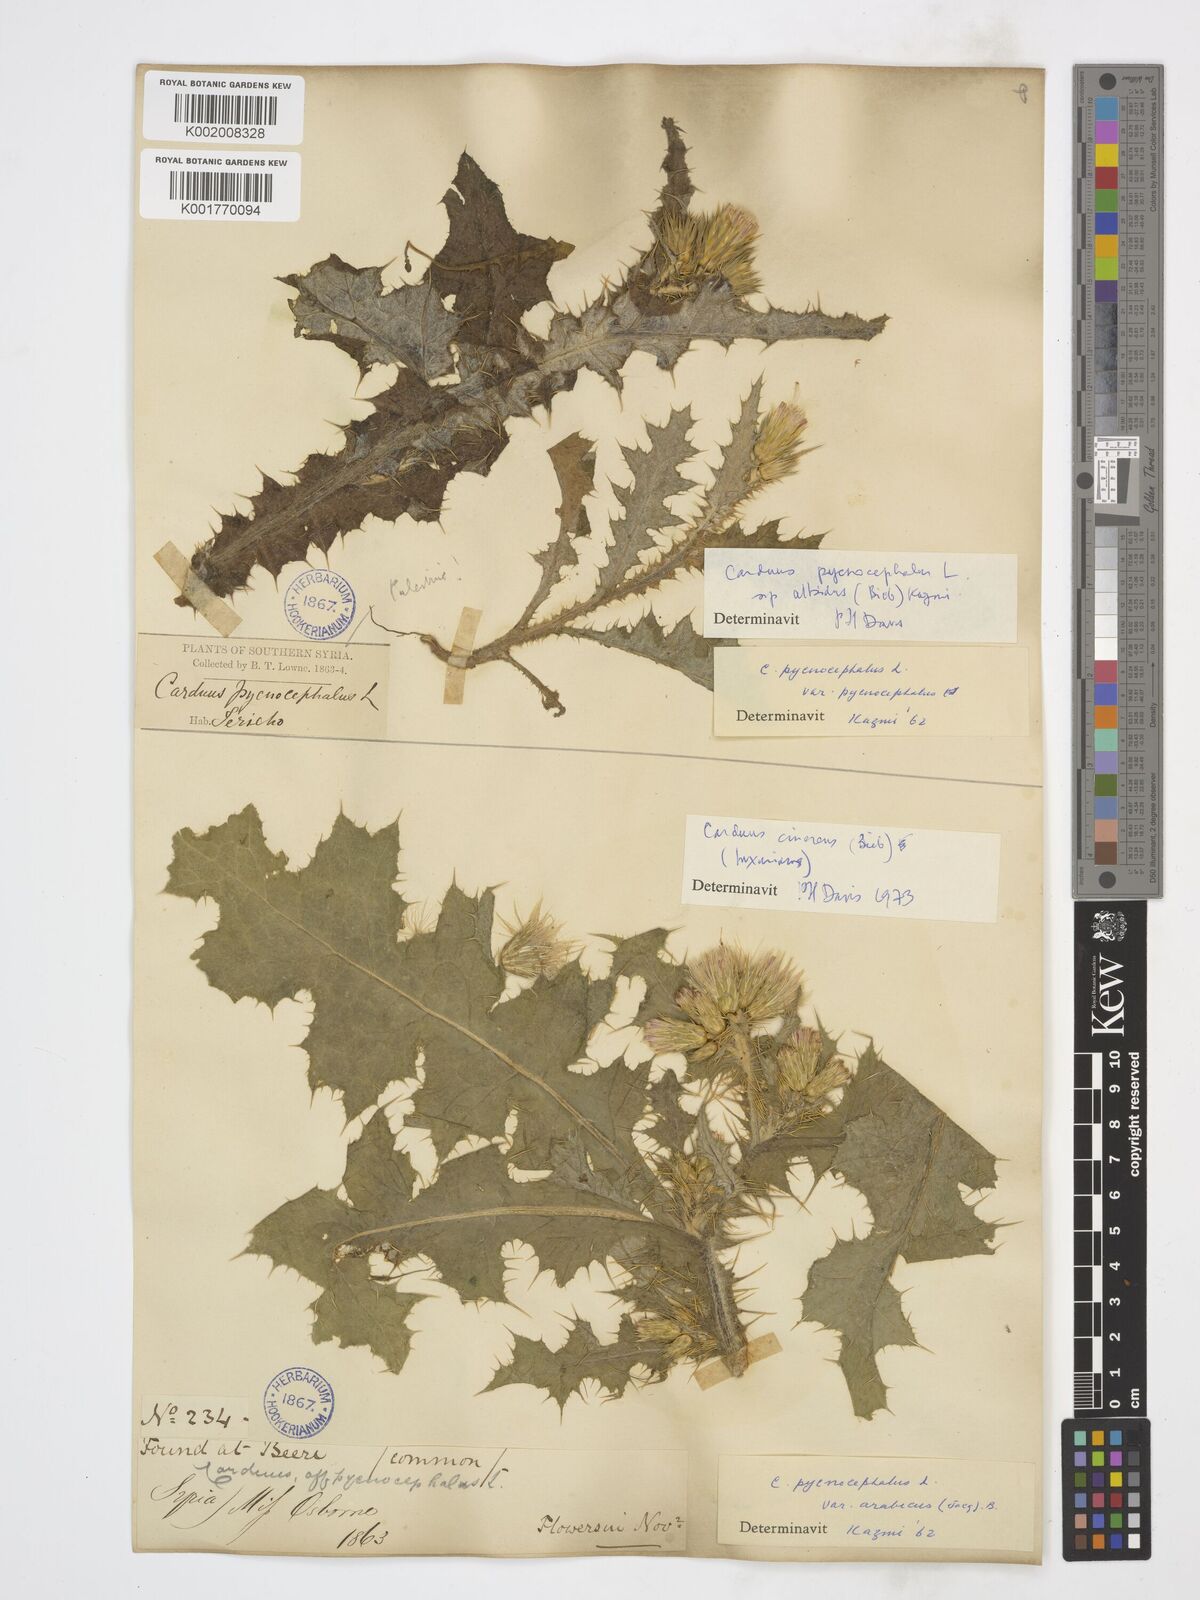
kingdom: Plantae
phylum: Tracheophyta
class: Magnoliopsida
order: Asterales
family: Asteraceae
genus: Carduus
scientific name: Carduus arabicus
